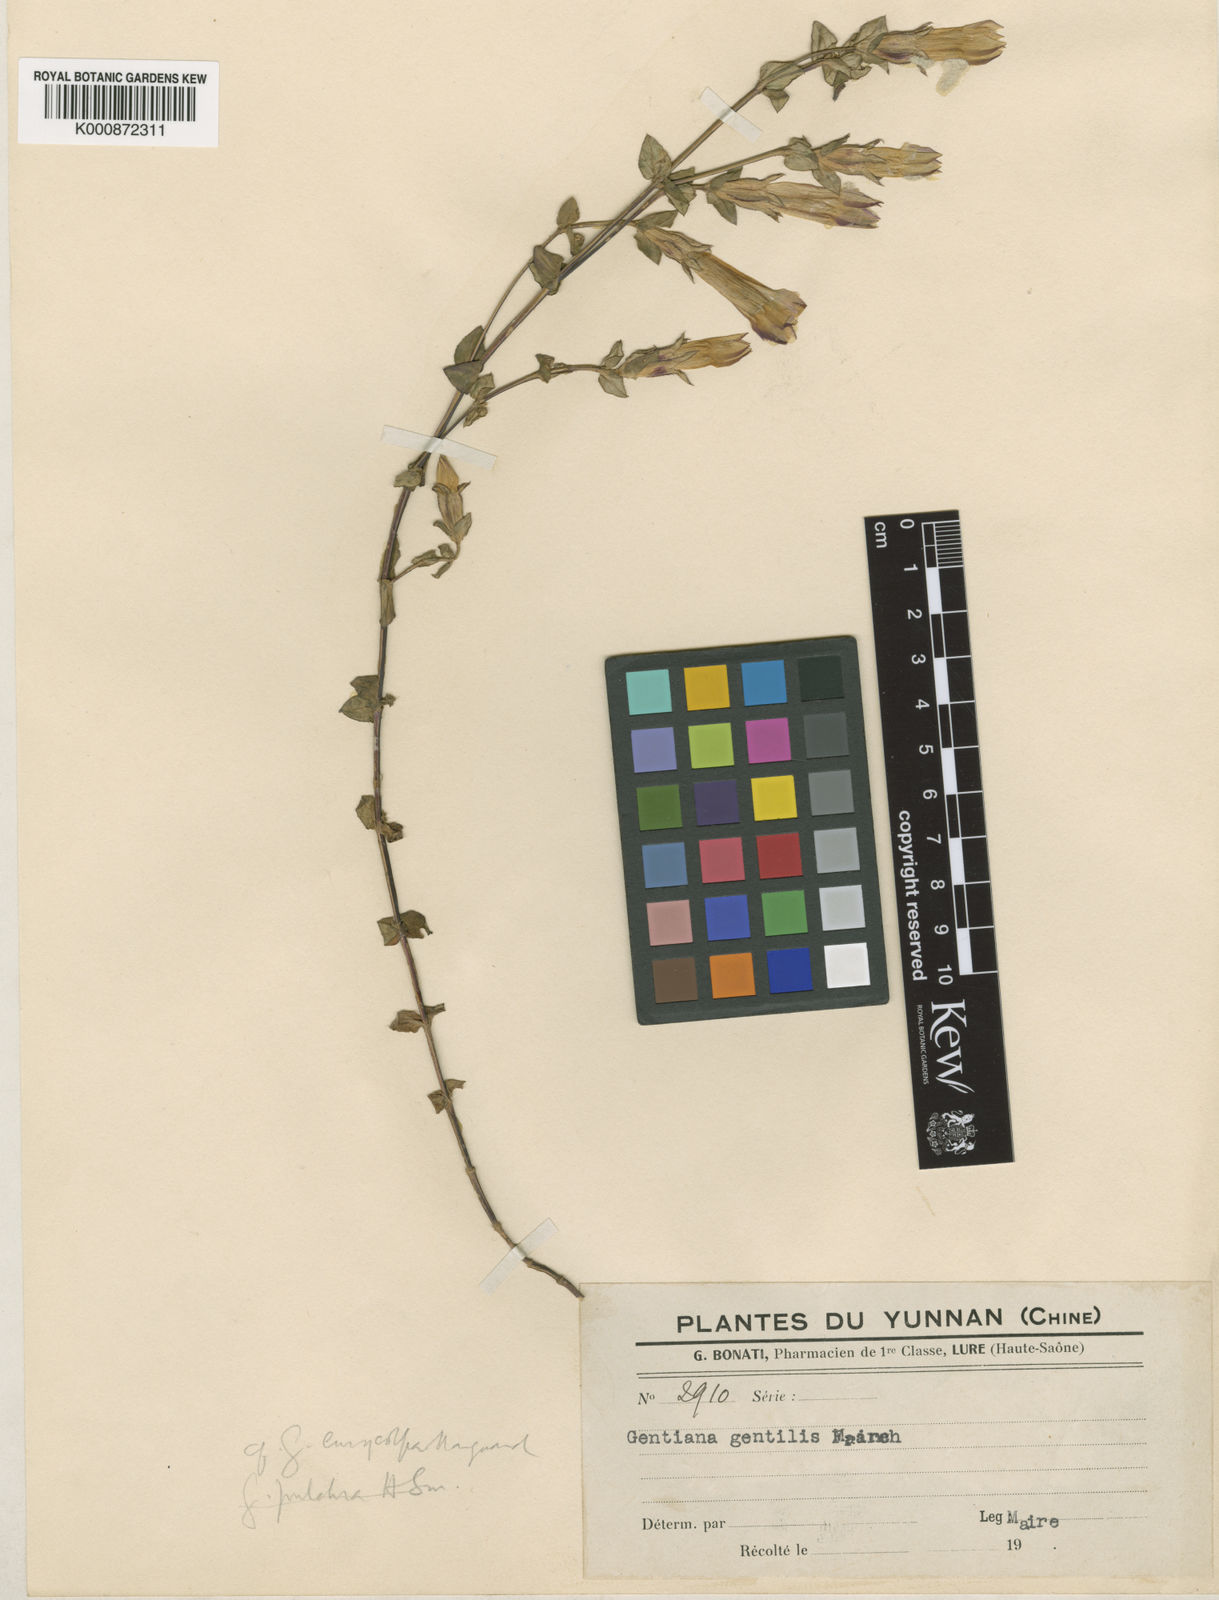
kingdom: Plantae
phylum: Tracheophyta
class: Magnoliopsida
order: Gentianales
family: Gentianaceae
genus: Metagentiana
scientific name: Metagentiana
